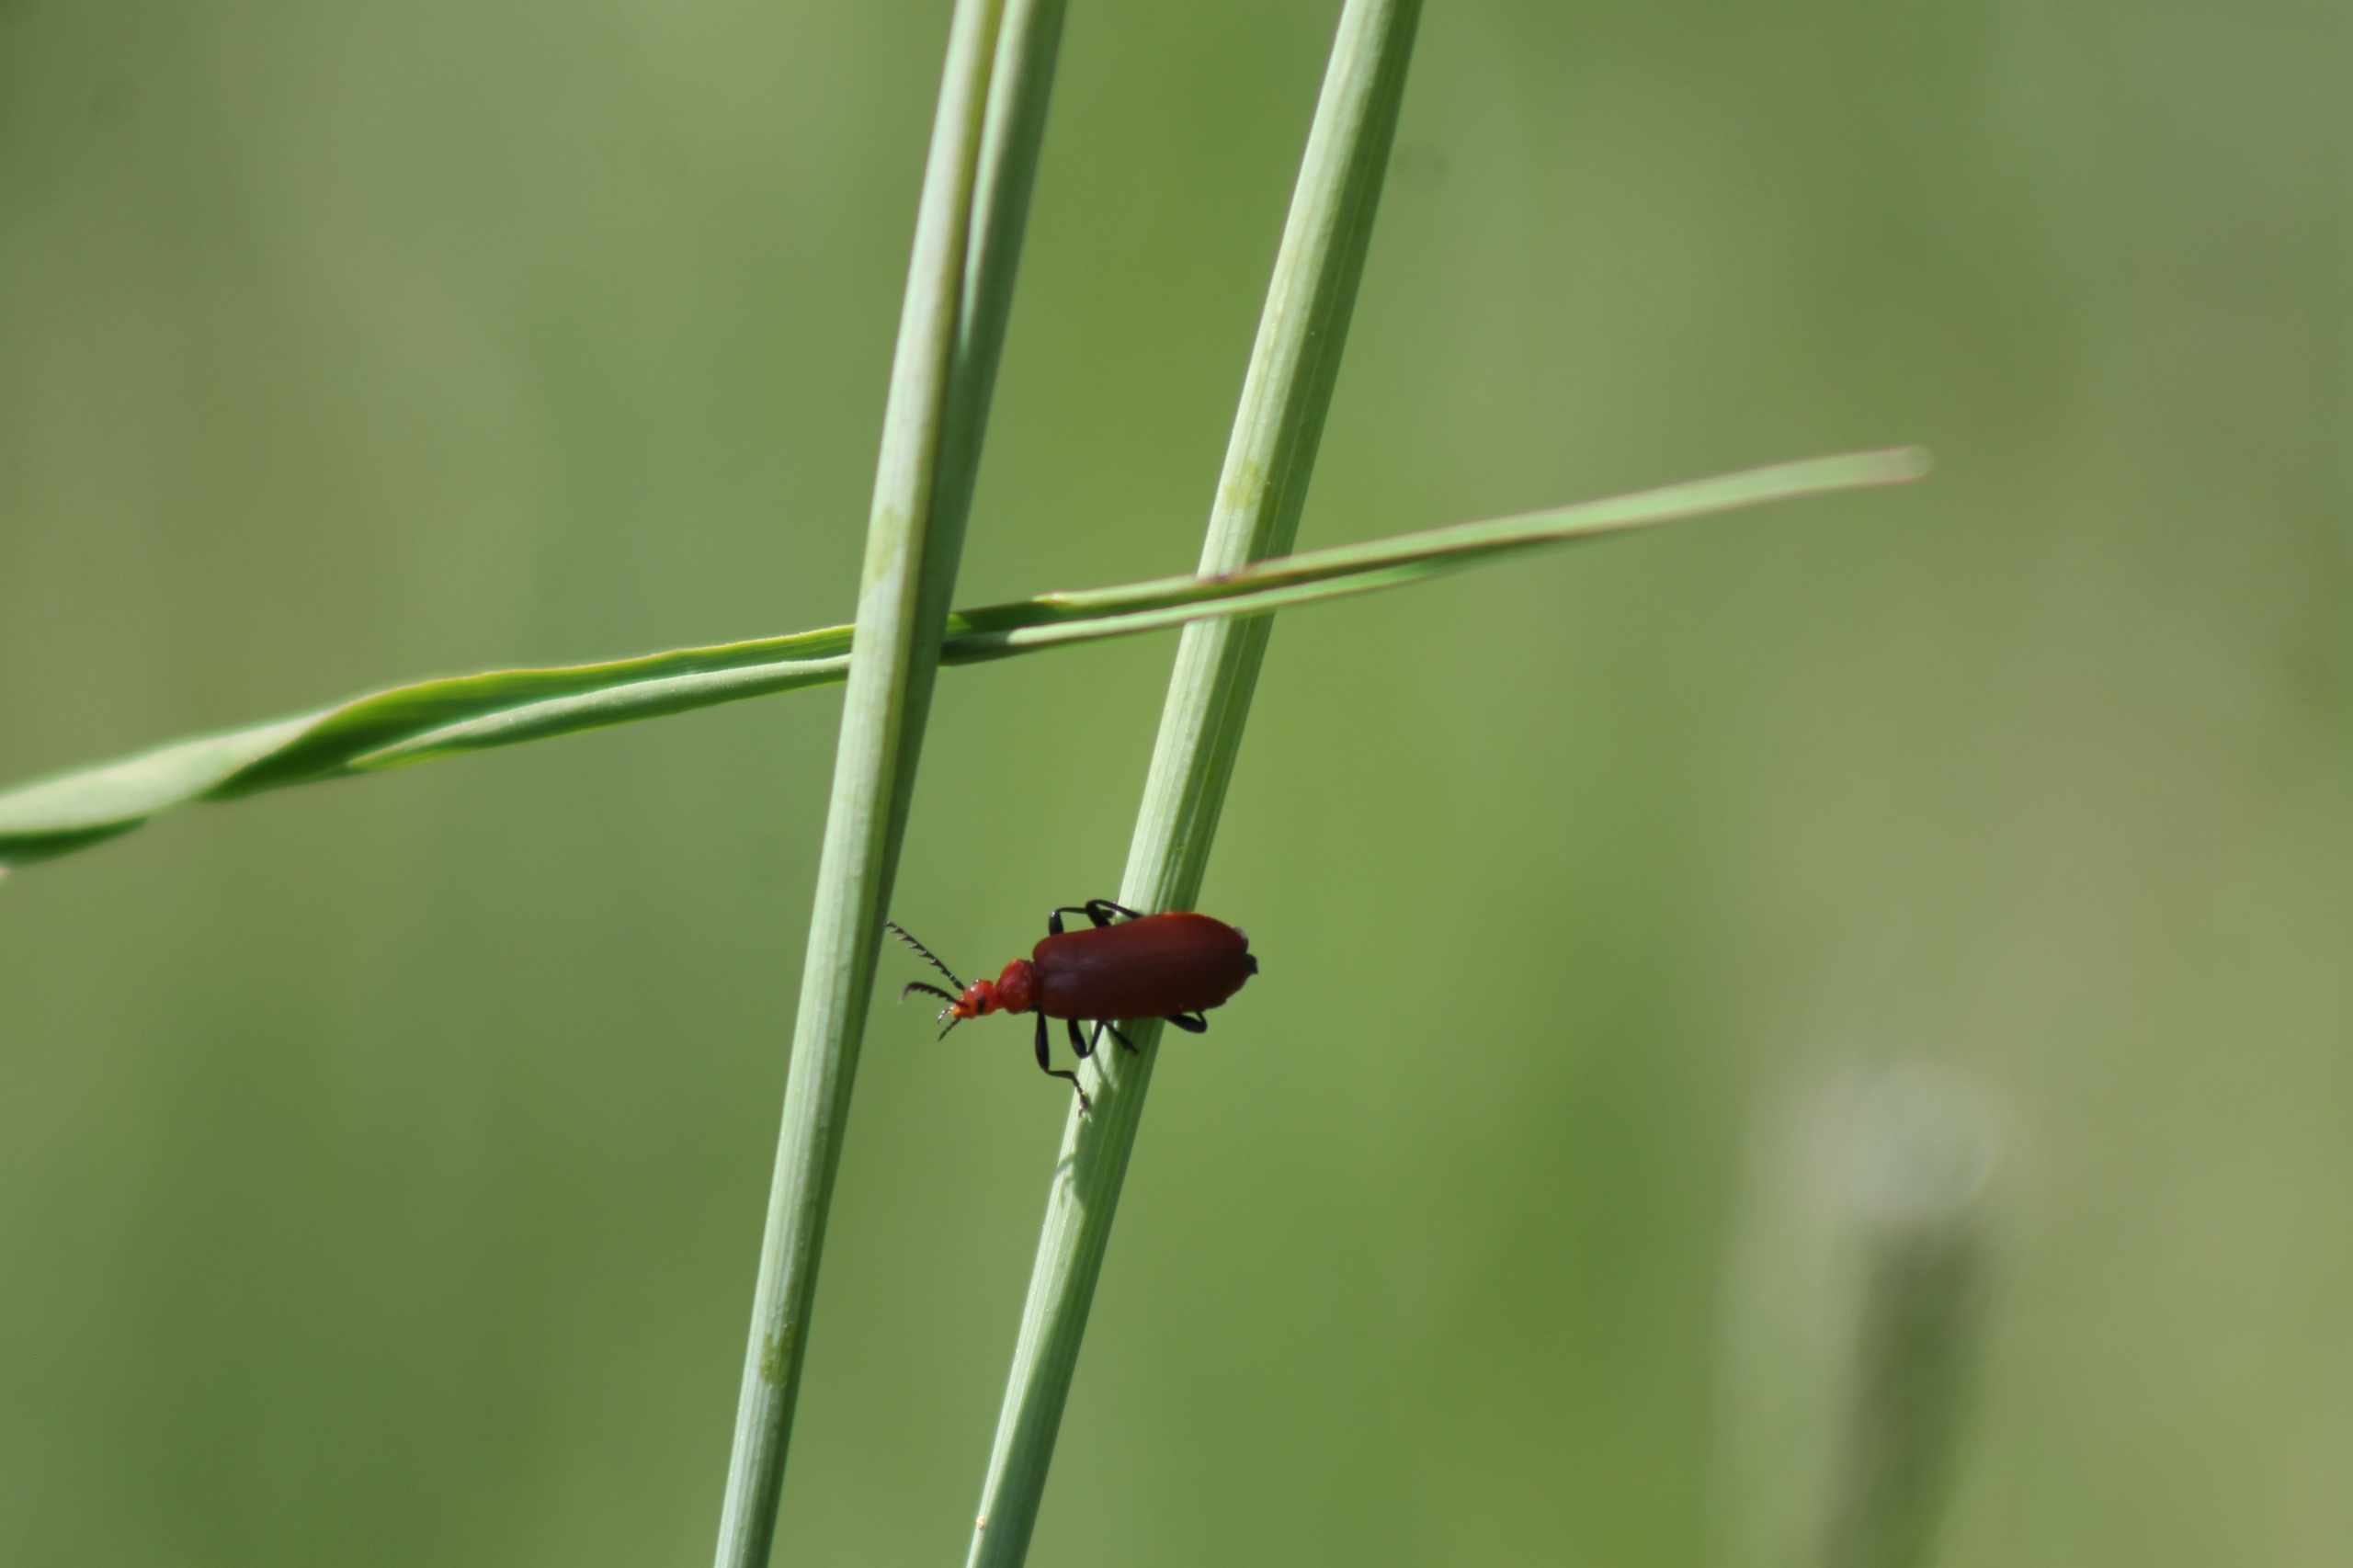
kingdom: Animalia
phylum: Arthropoda
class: Insecta
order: Coleoptera
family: Pyrochroidae
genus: Pyrochroa
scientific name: Pyrochroa serraticornis
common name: Rødhovedet kardinalbille
